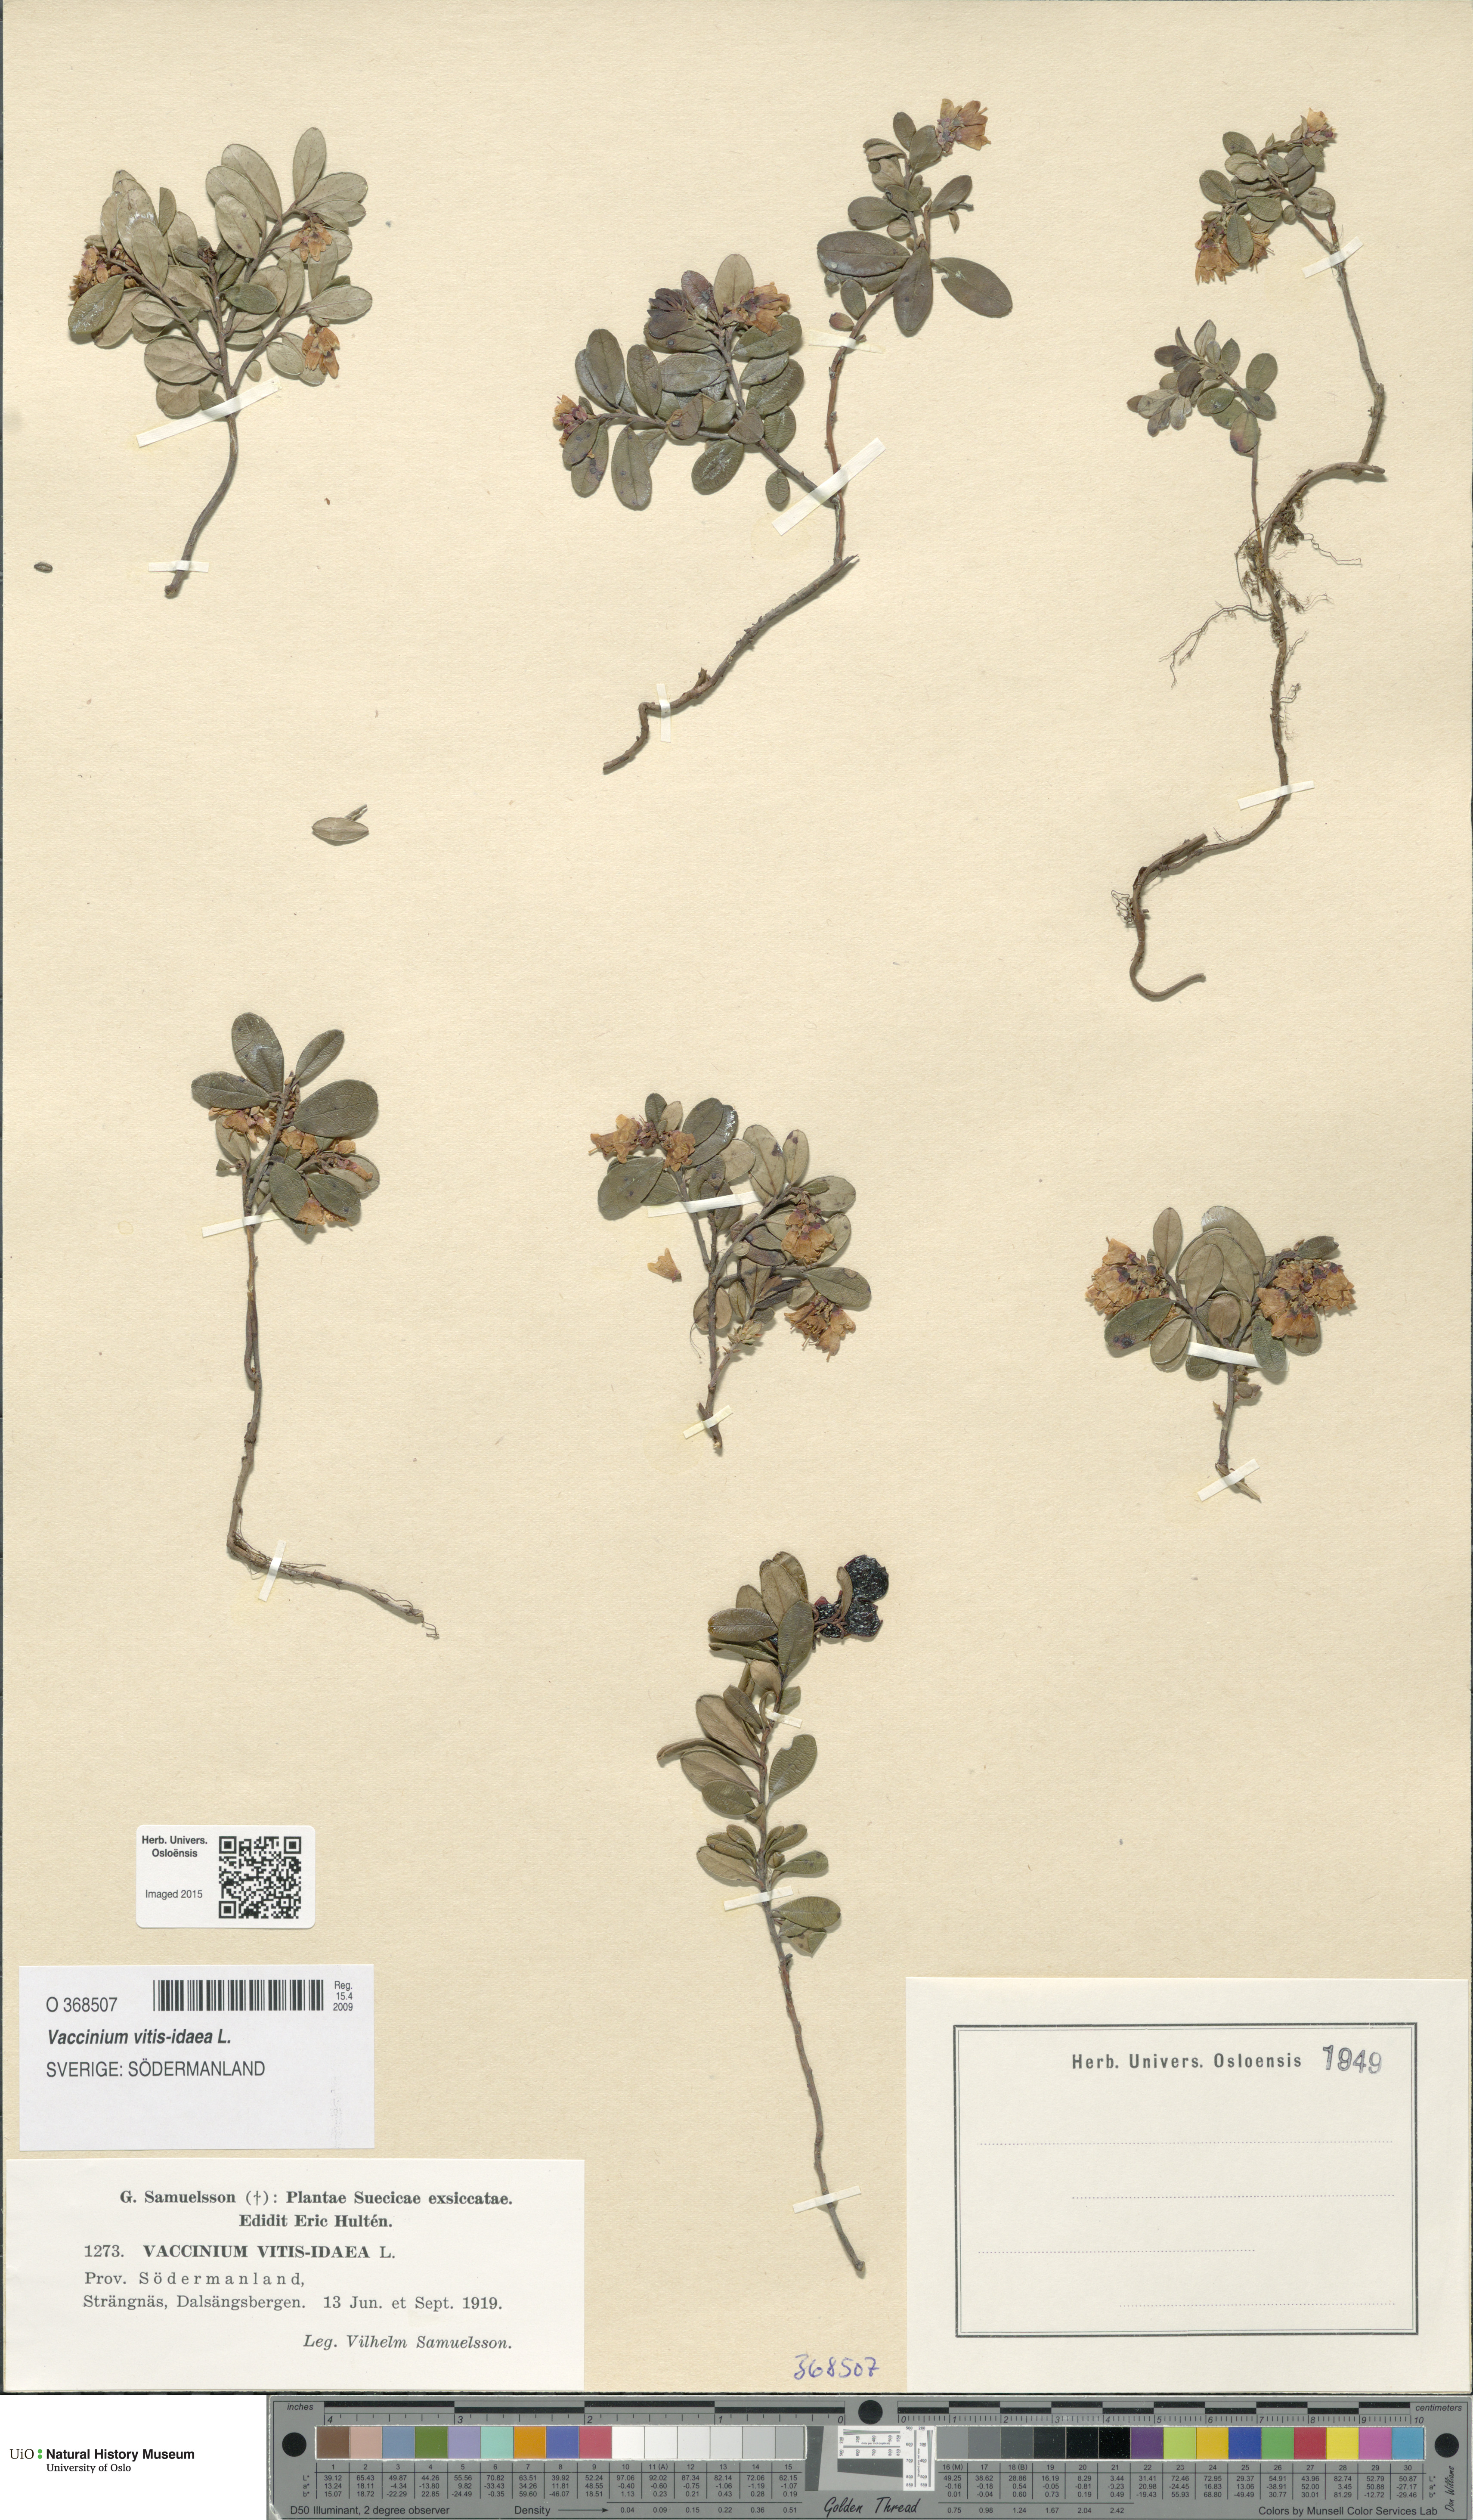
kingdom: Plantae
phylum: Tracheophyta
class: Magnoliopsida
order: Ericales
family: Ericaceae
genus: Vaccinium
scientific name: Vaccinium vitis-idaea
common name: Cowberry
